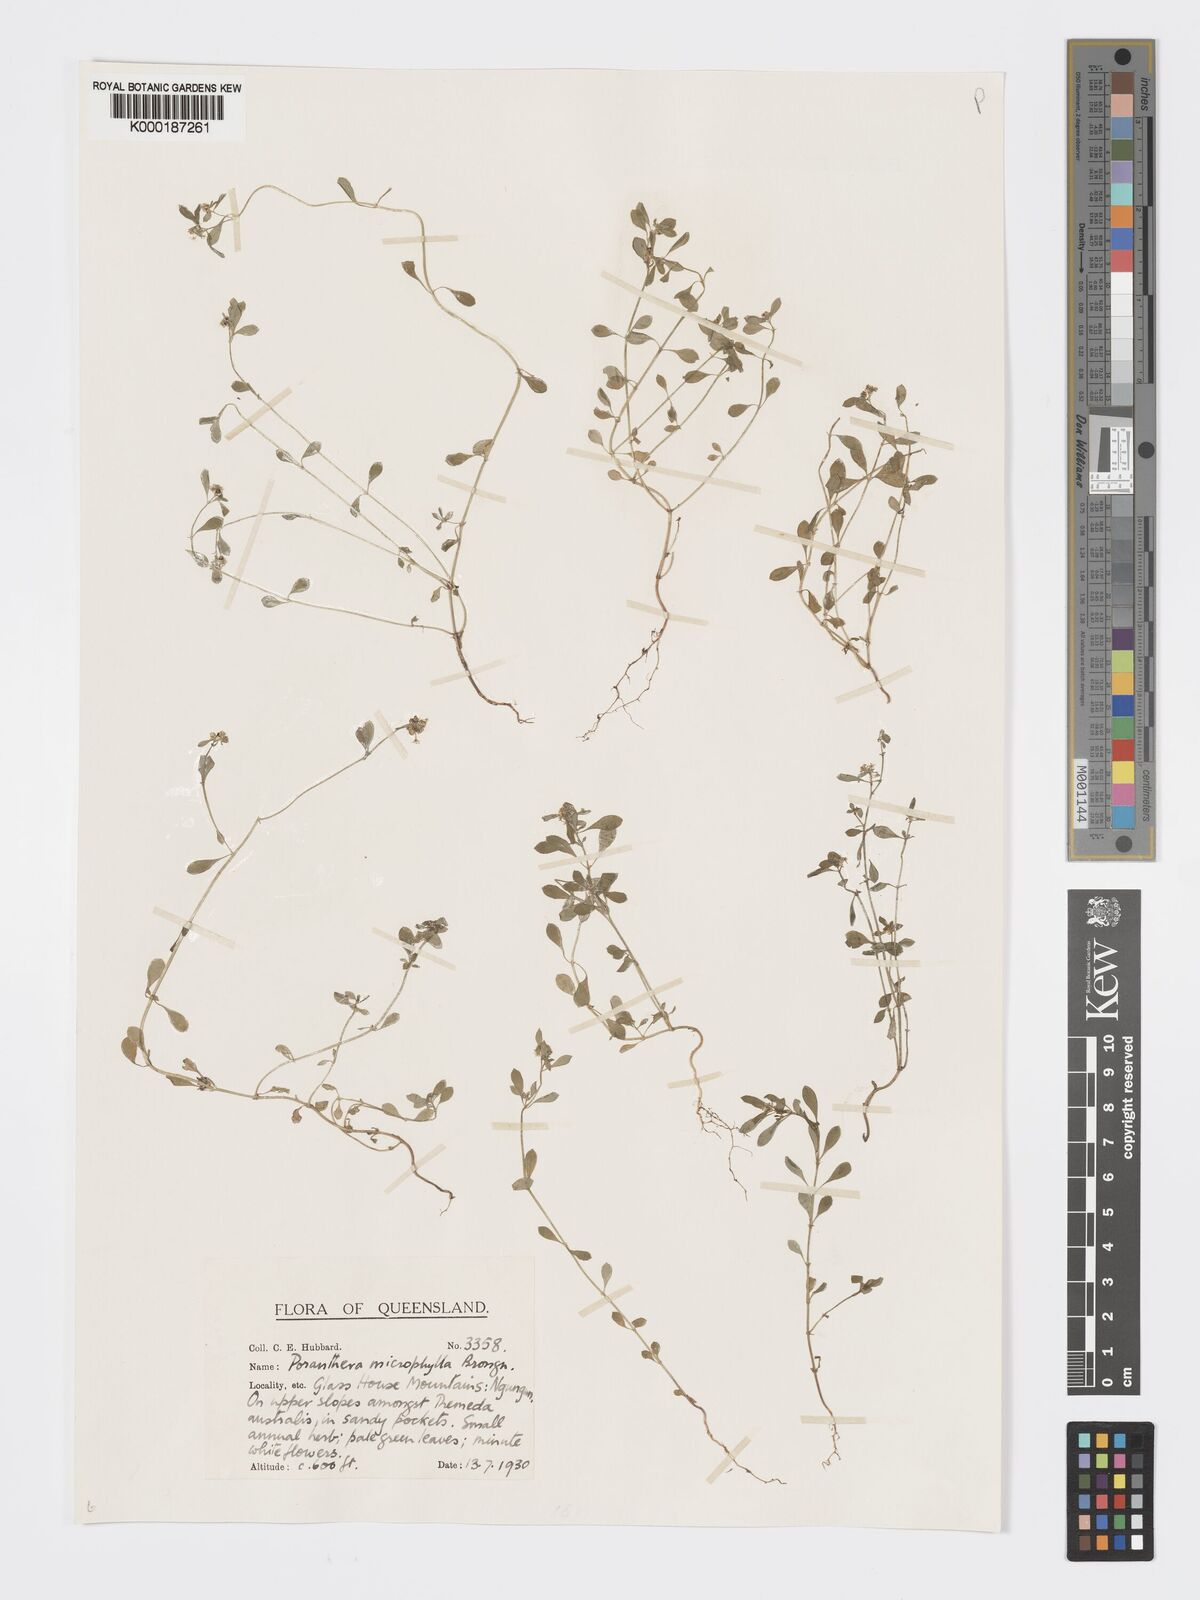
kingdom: Plantae
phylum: Tracheophyta
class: Magnoliopsida
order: Malpighiales
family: Phyllanthaceae
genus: Poranthera
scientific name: Poranthera microphylla
